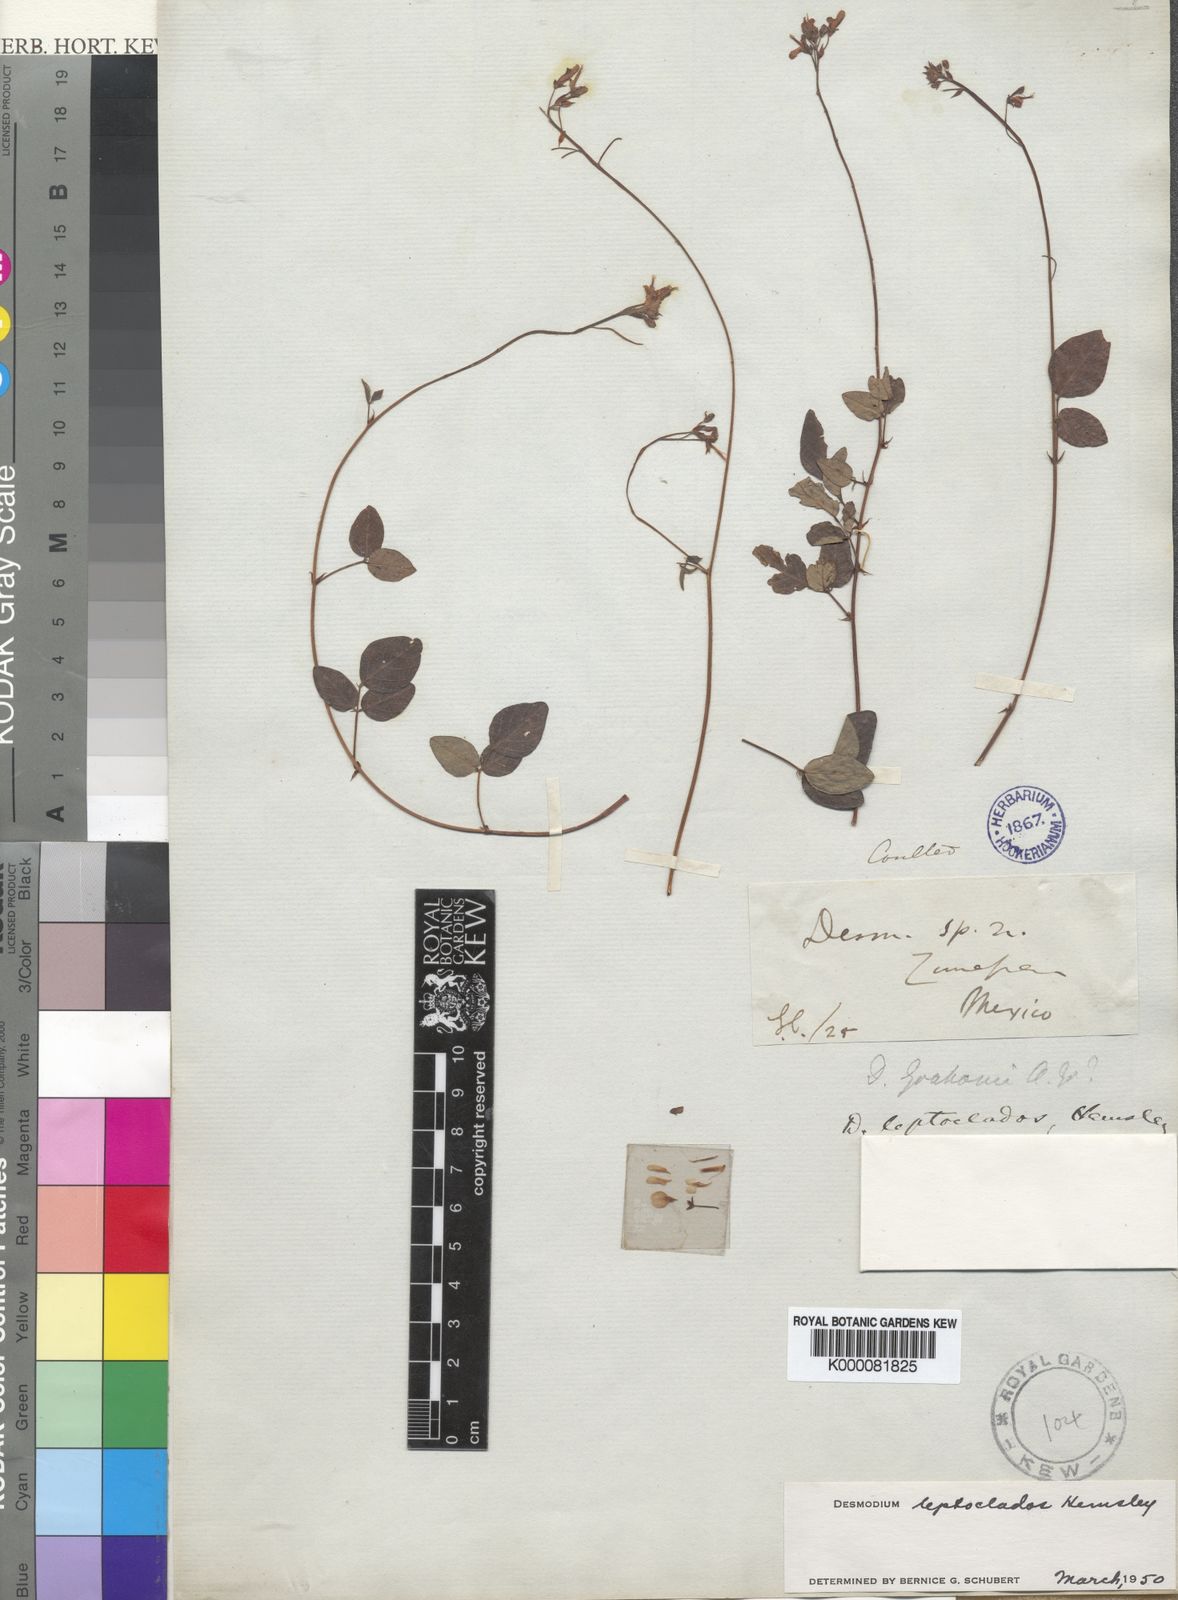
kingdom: Plantae
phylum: Tracheophyta
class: Magnoliopsida
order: Fabales
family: Fabaceae
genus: Desmodium
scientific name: Desmodium leptoclados
